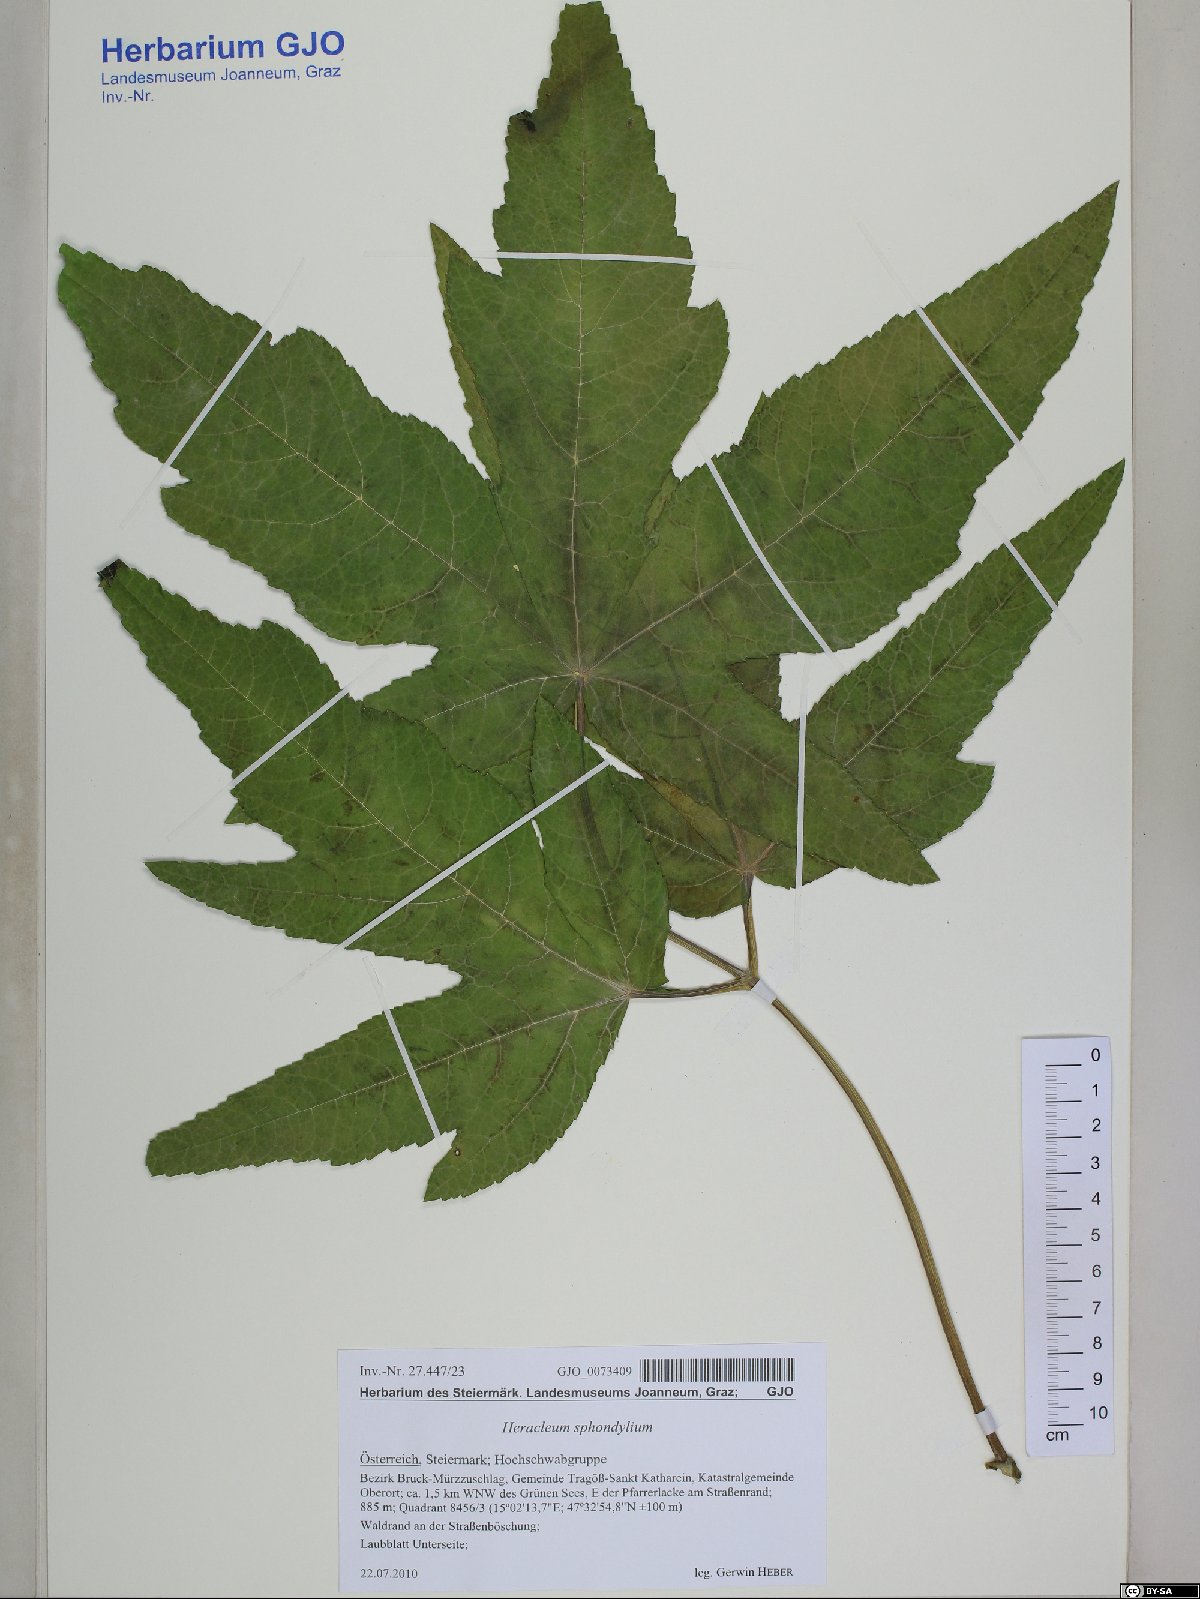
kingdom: Plantae
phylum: Tracheophyta
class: Magnoliopsida
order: Apiales
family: Apiaceae
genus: Heracleum
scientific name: Heracleum sphondylium
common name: Hogweed
